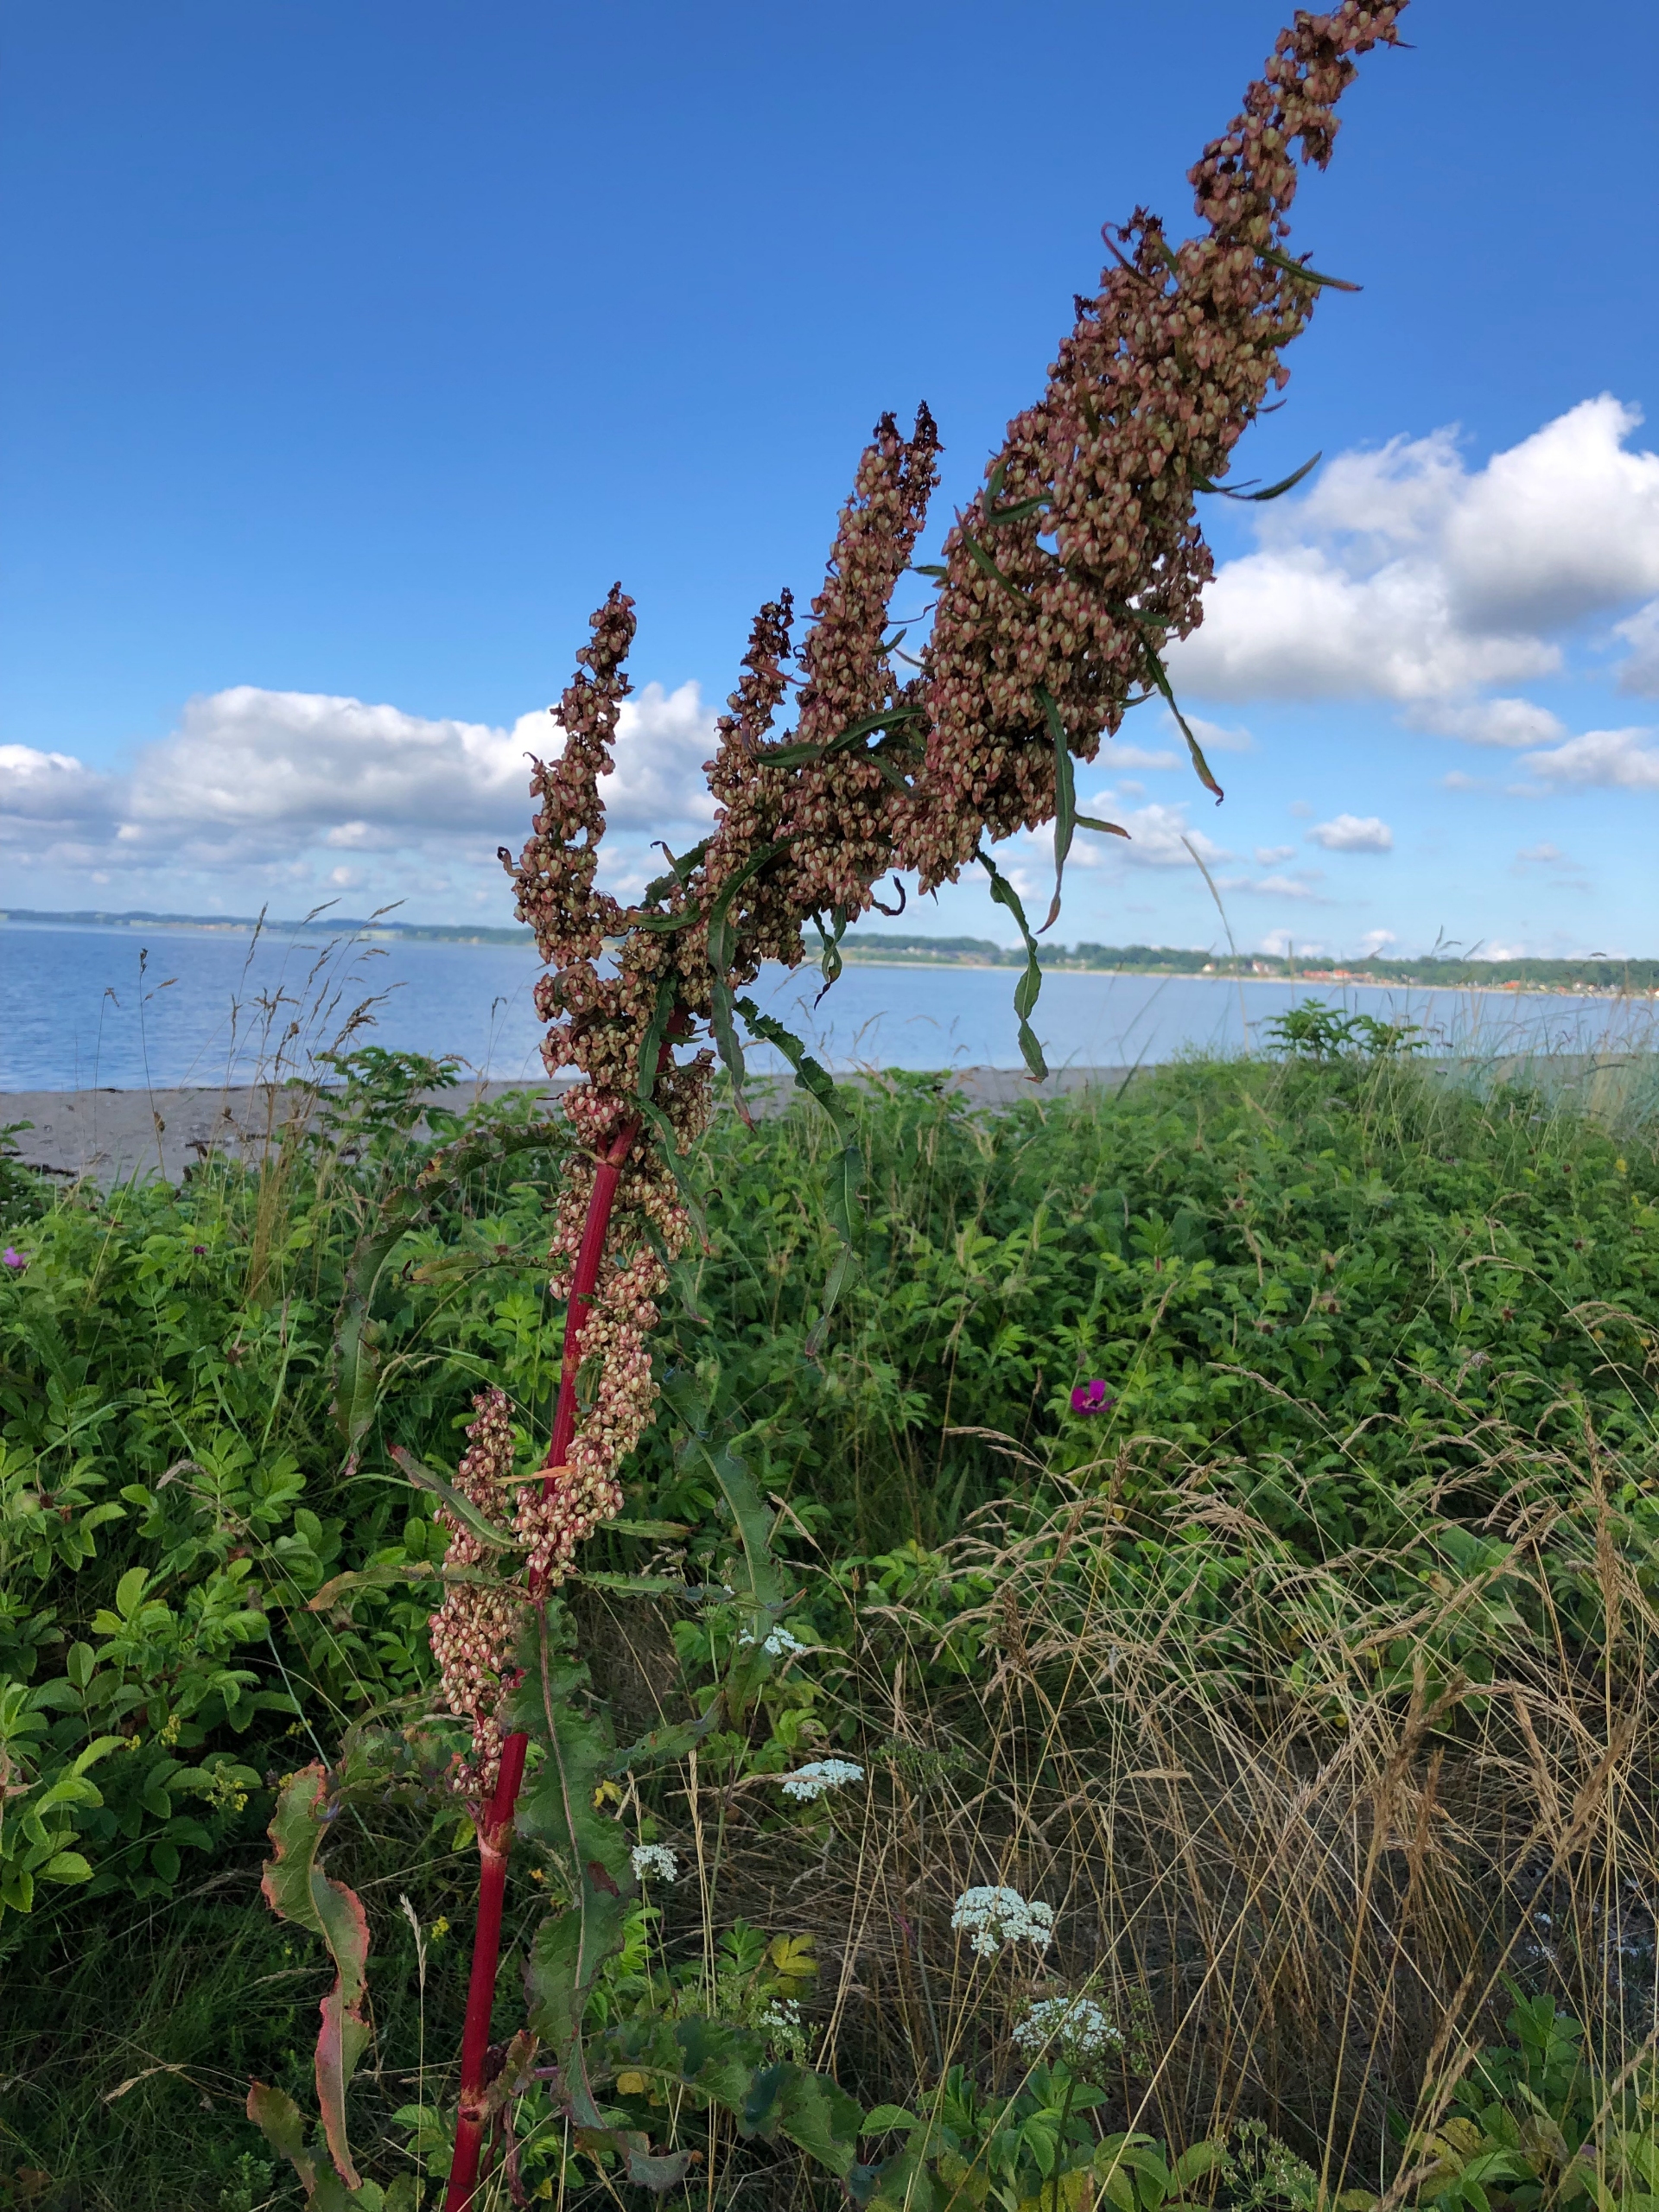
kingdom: Plantae
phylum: Tracheophyta
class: Magnoliopsida
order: Caryophyllales
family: Polygonaceae
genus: Rumex
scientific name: Rumex crispus
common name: Kruset skræppe
